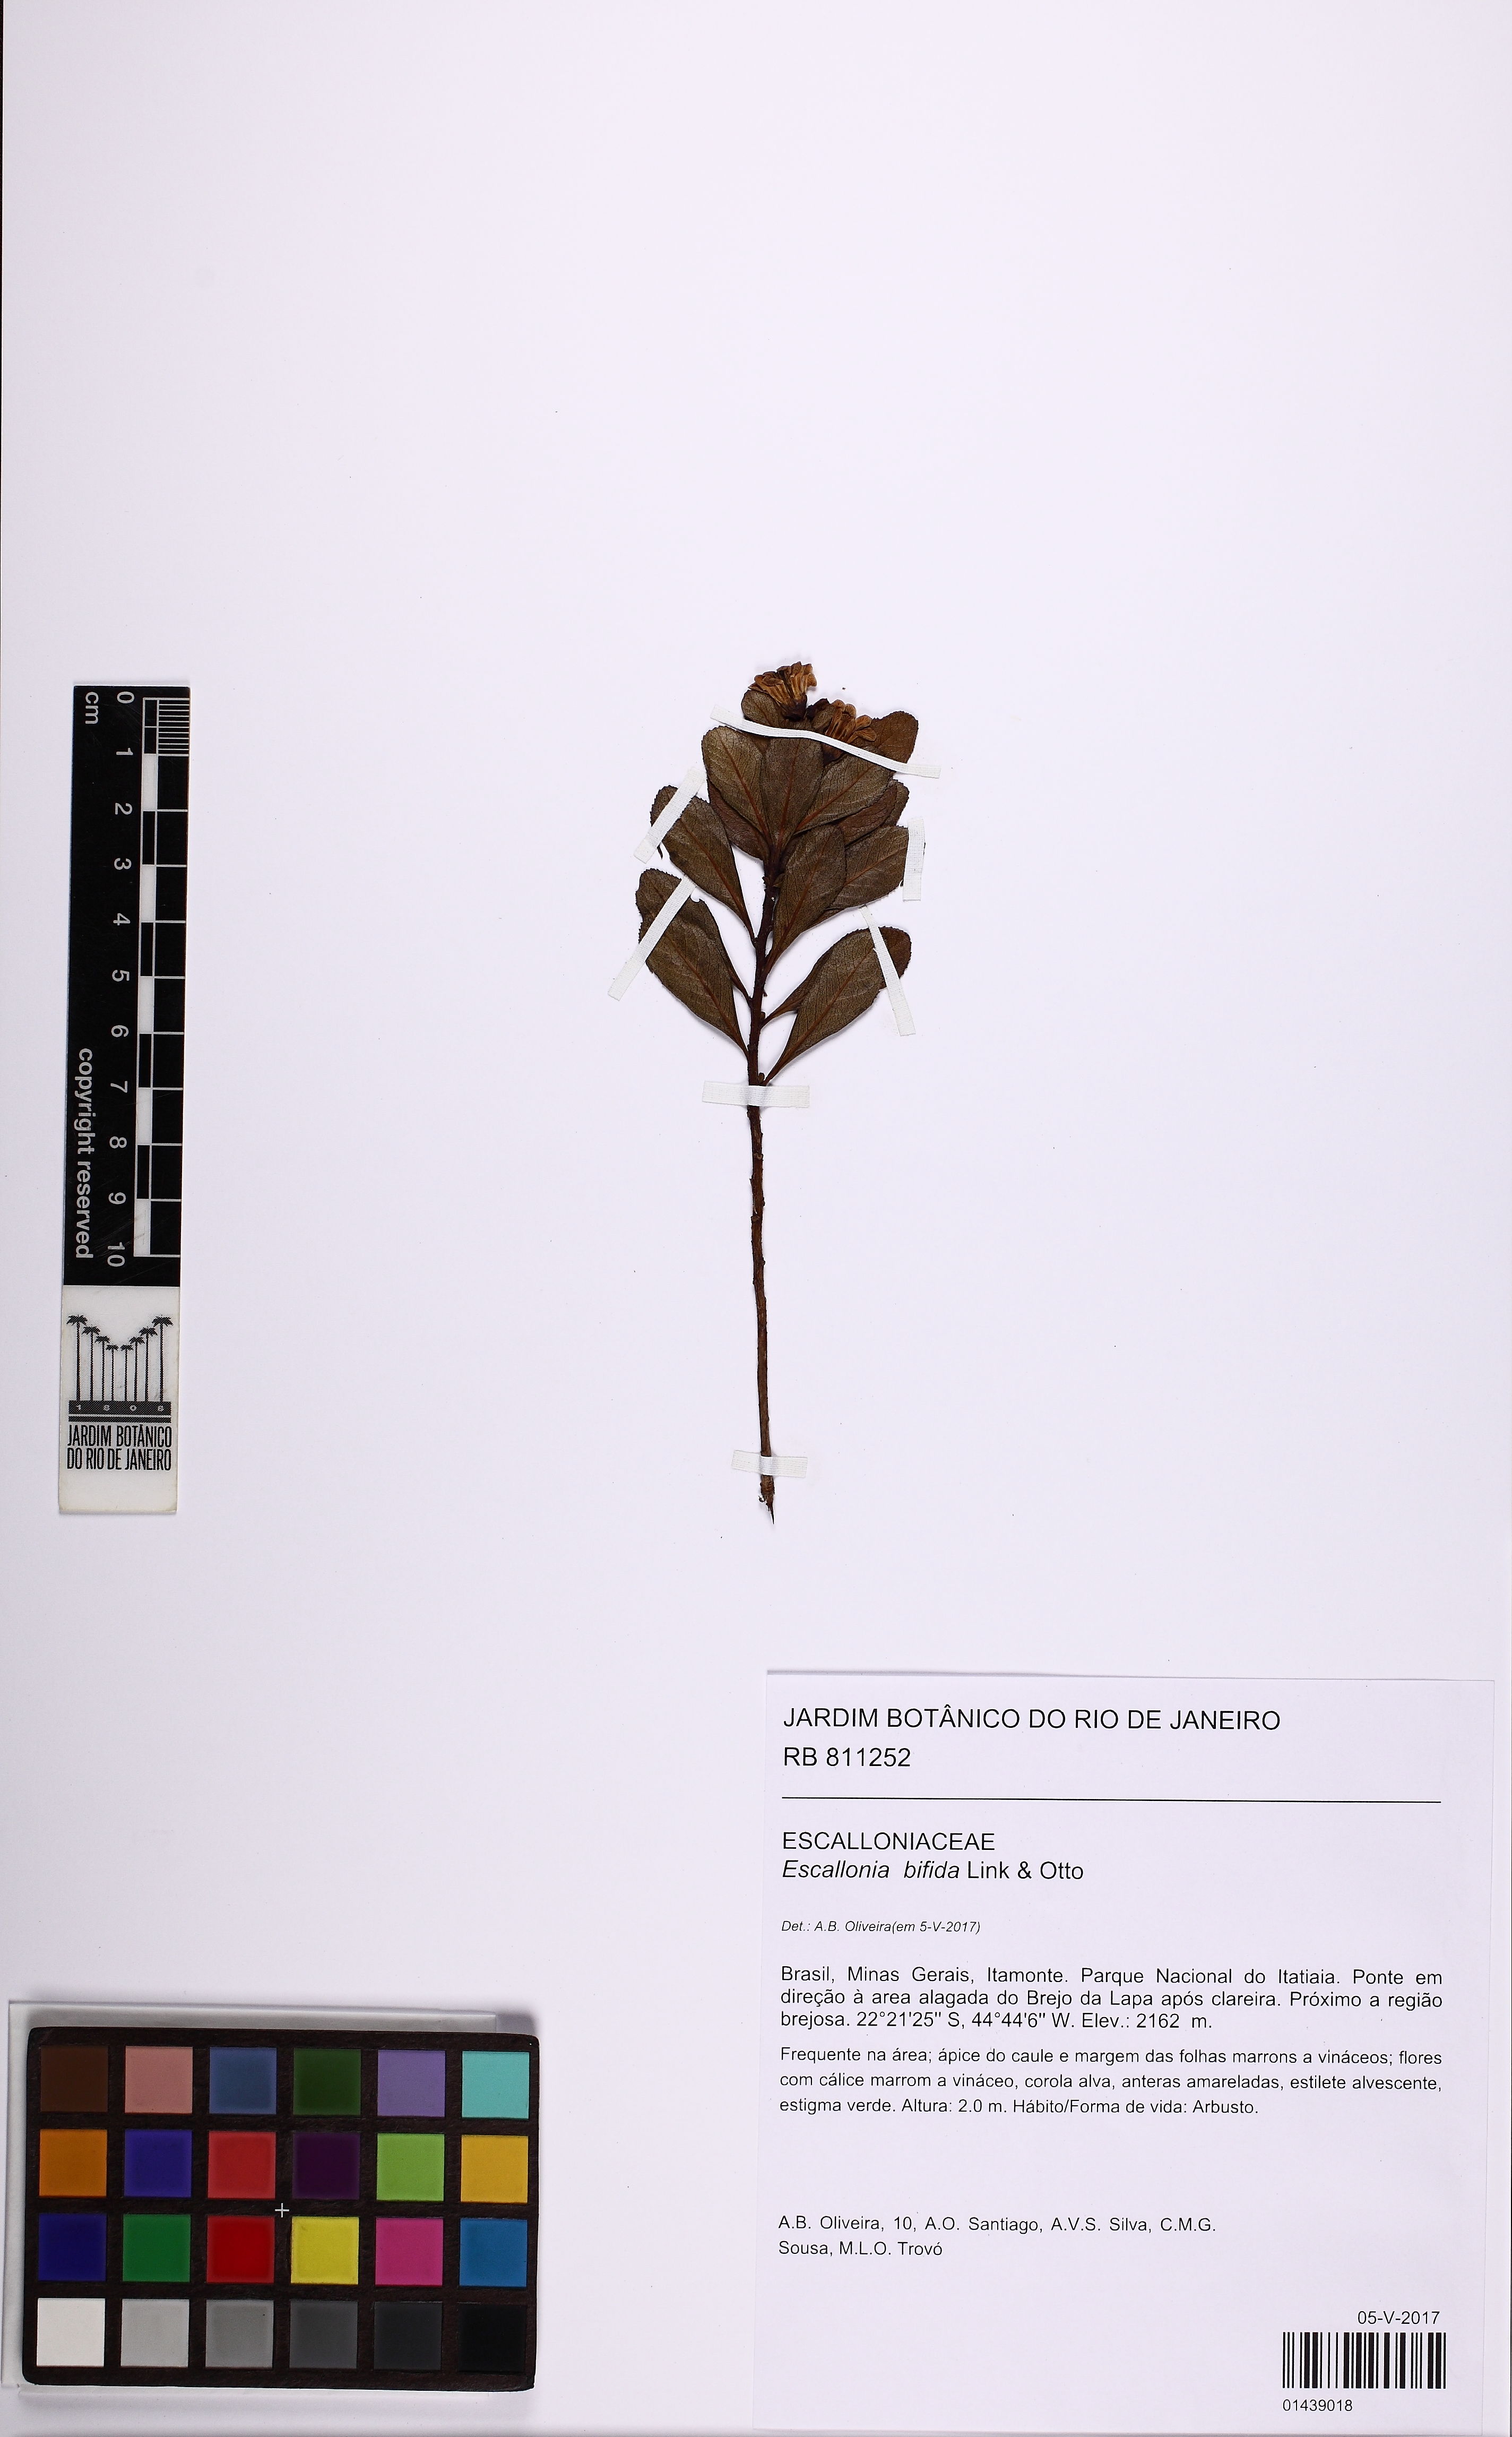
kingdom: Plantae
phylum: Tracheophyta
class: Magnoliopsida
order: Escalloniales
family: Escalloniaceae
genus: Escallonia
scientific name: Escallonia bifida
